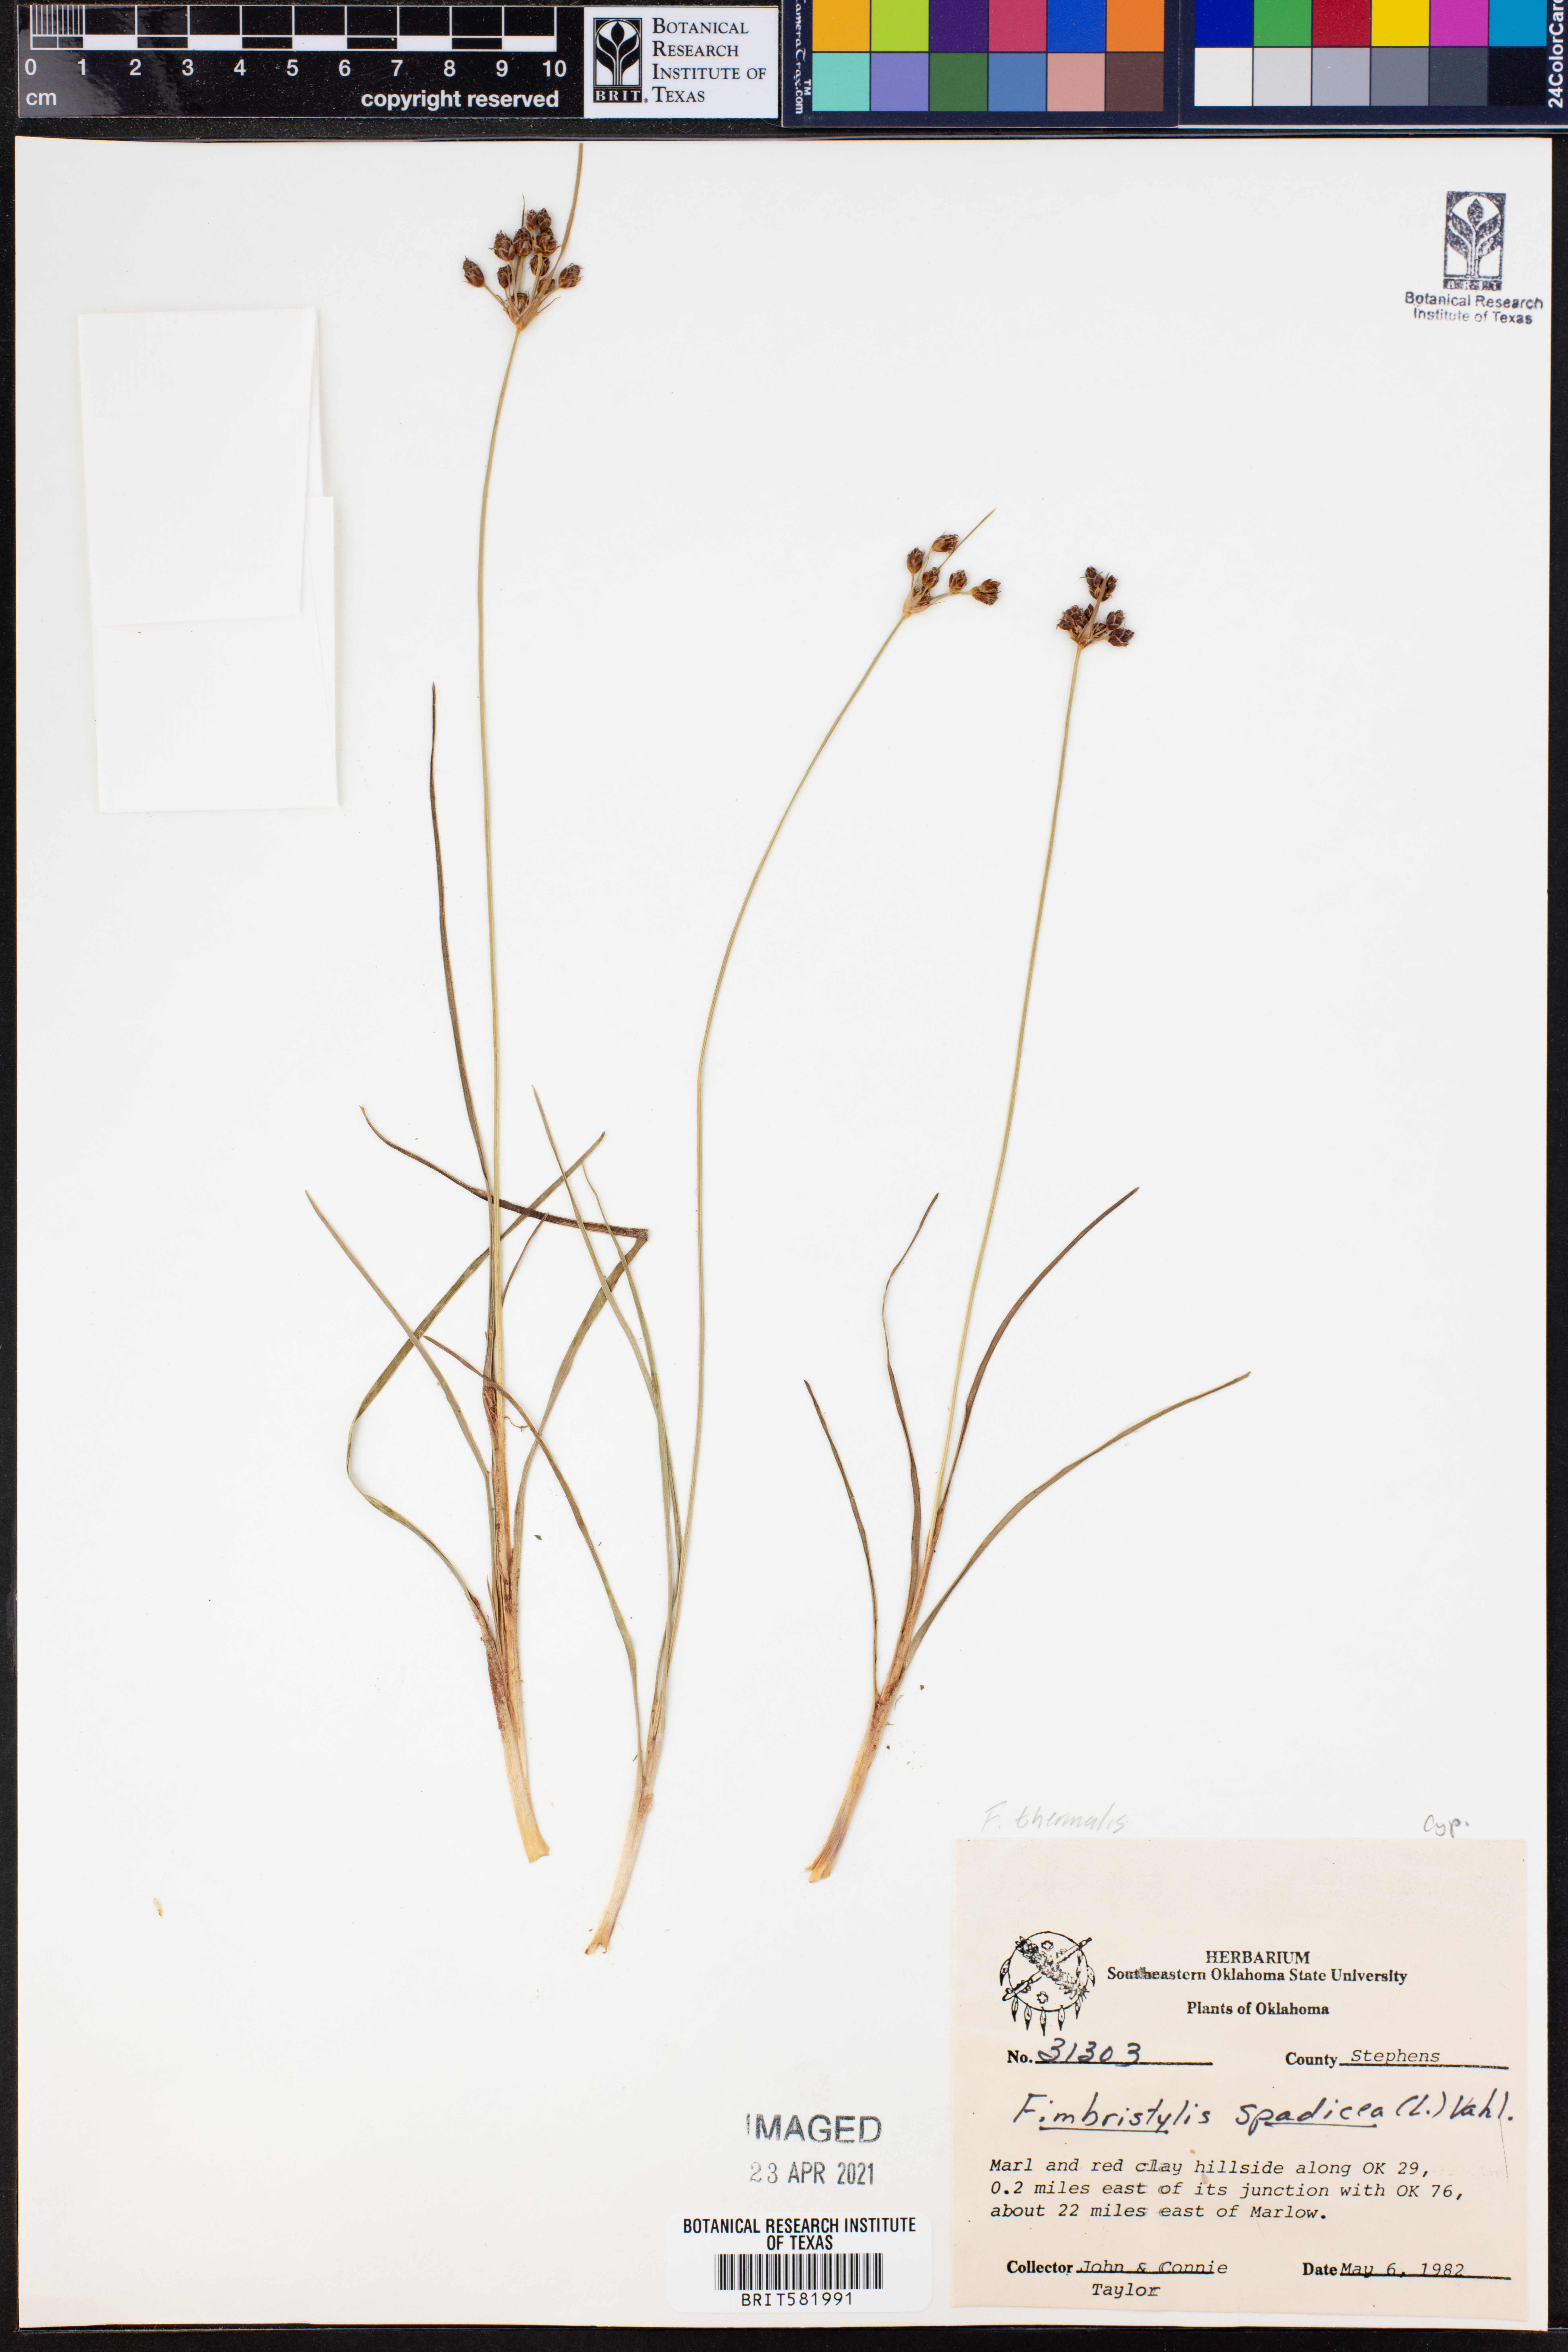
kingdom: Plantae
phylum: Tracheophyta
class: Liliopsida
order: Poales
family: Cyperaceae
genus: Fimbristylis
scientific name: Fimbristylis thermalis
